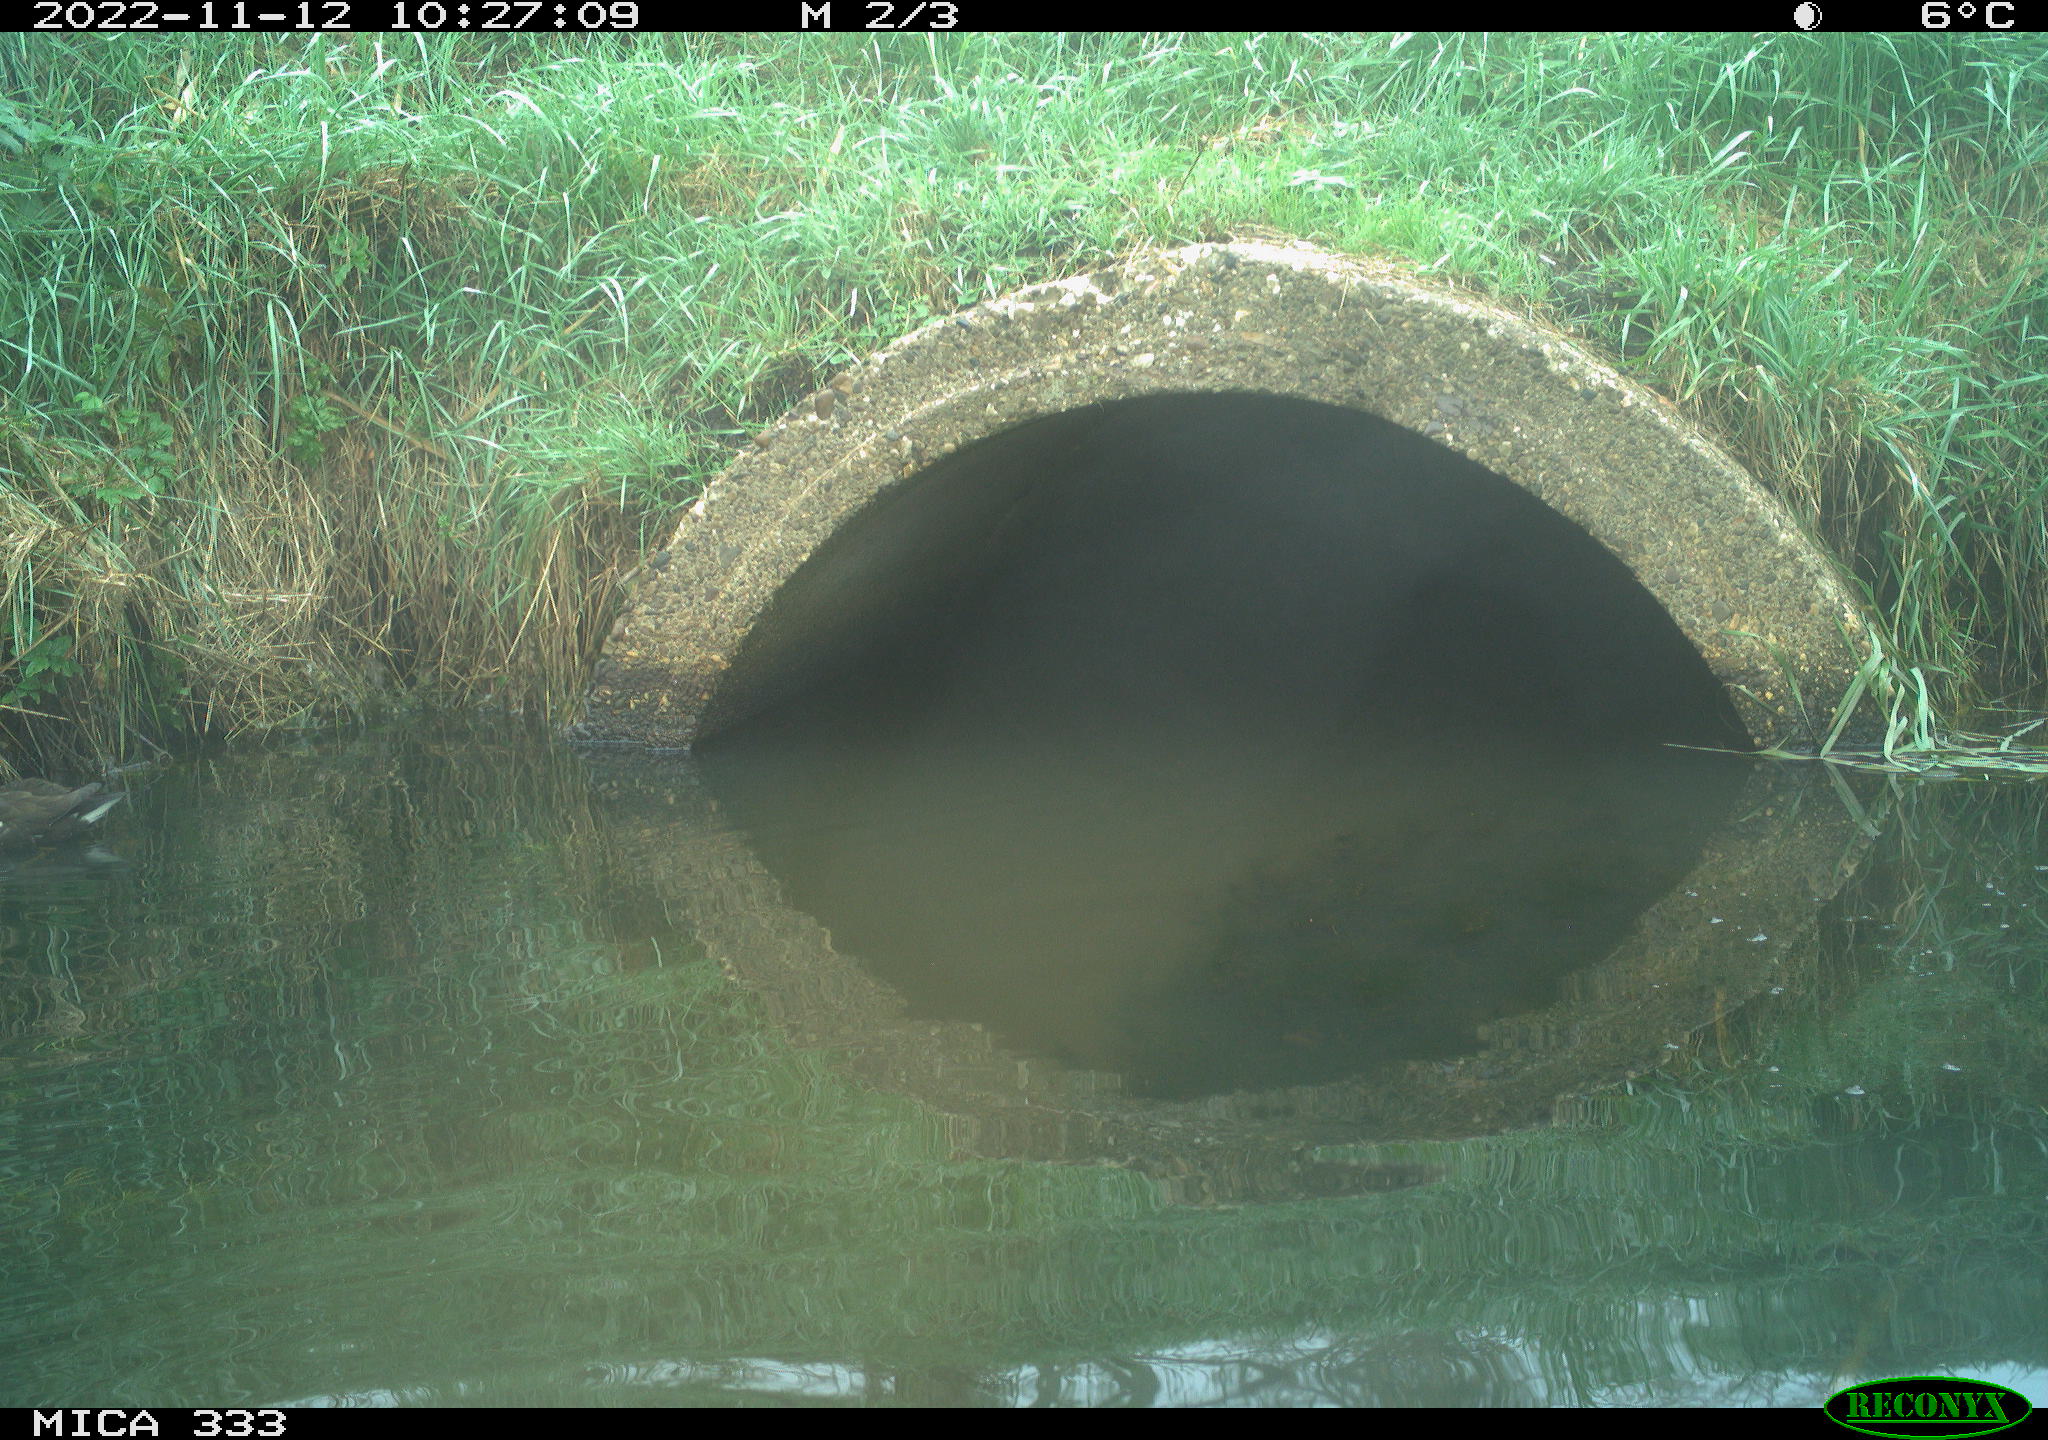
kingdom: Animalia
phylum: Chordata
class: Aves
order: Gruiformes
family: Rallidae
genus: Gallinula
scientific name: Gallinula chloropus
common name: Common moorhen
